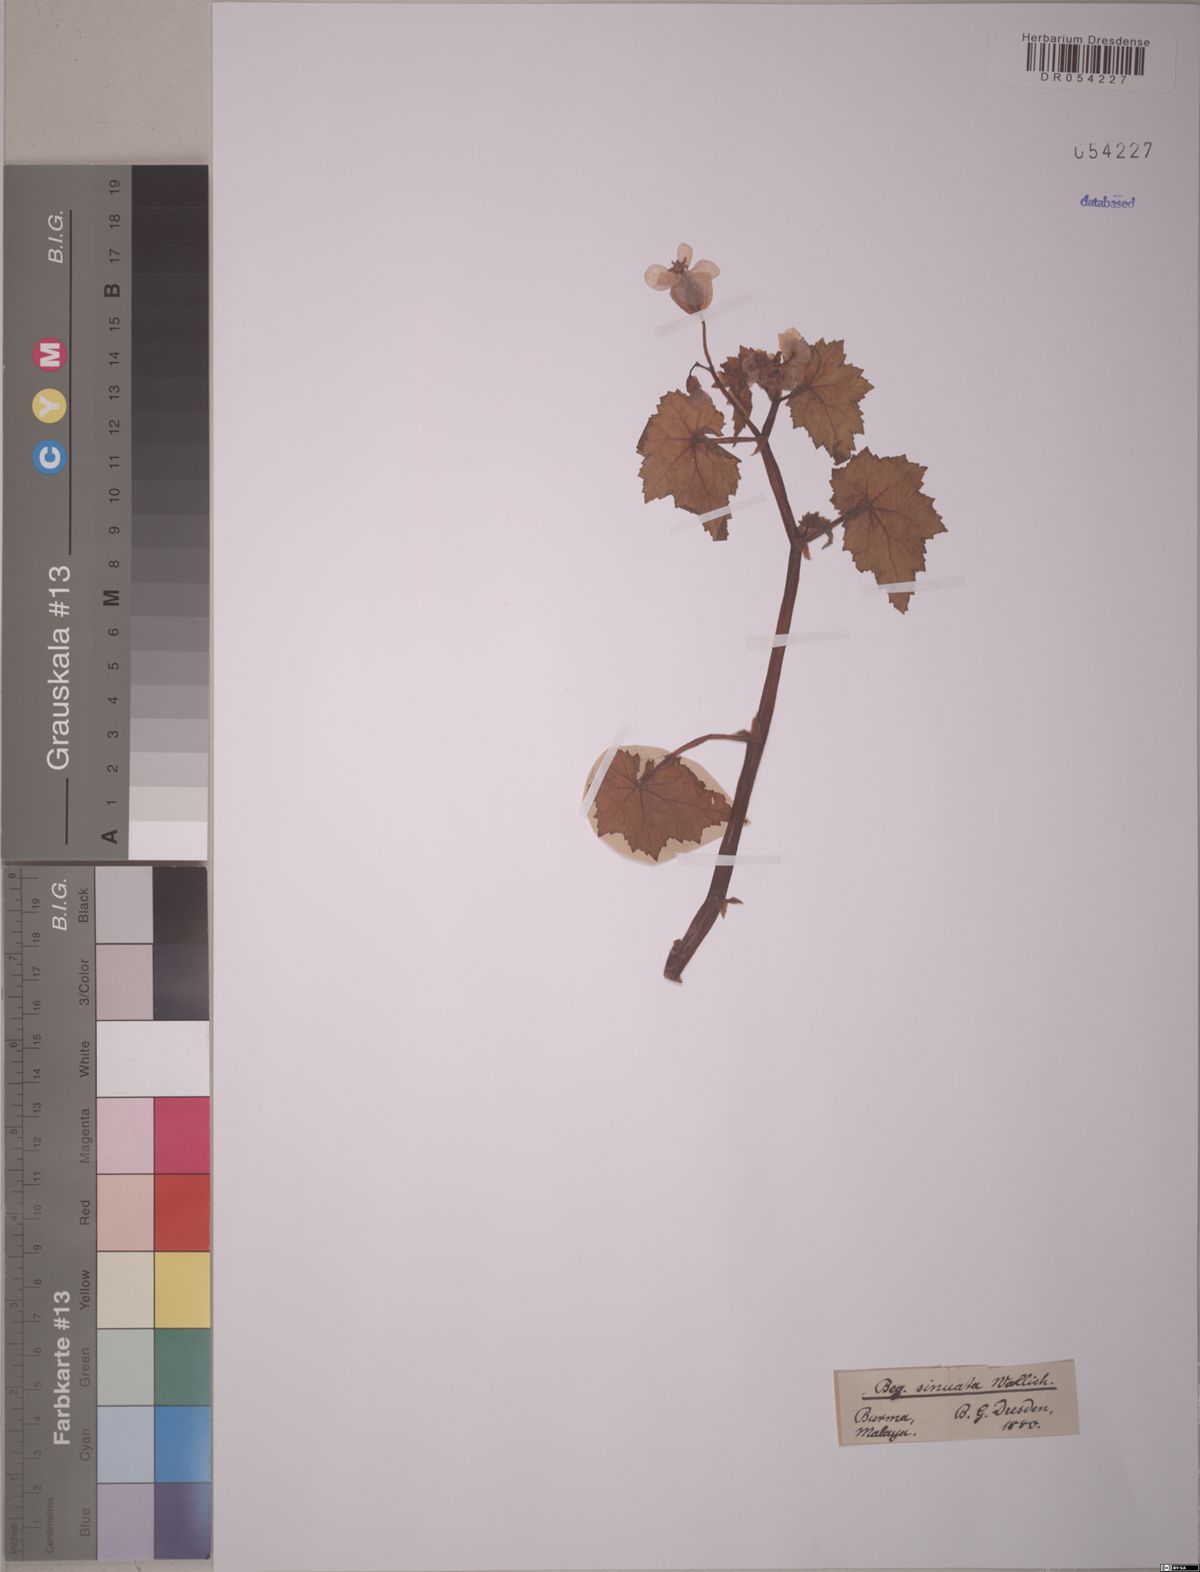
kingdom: Plantae
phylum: Tracheophyta
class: Magnoliopsida
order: Cucurbitales
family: Begoniaceae
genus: Begonia
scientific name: Begonia sinuata
